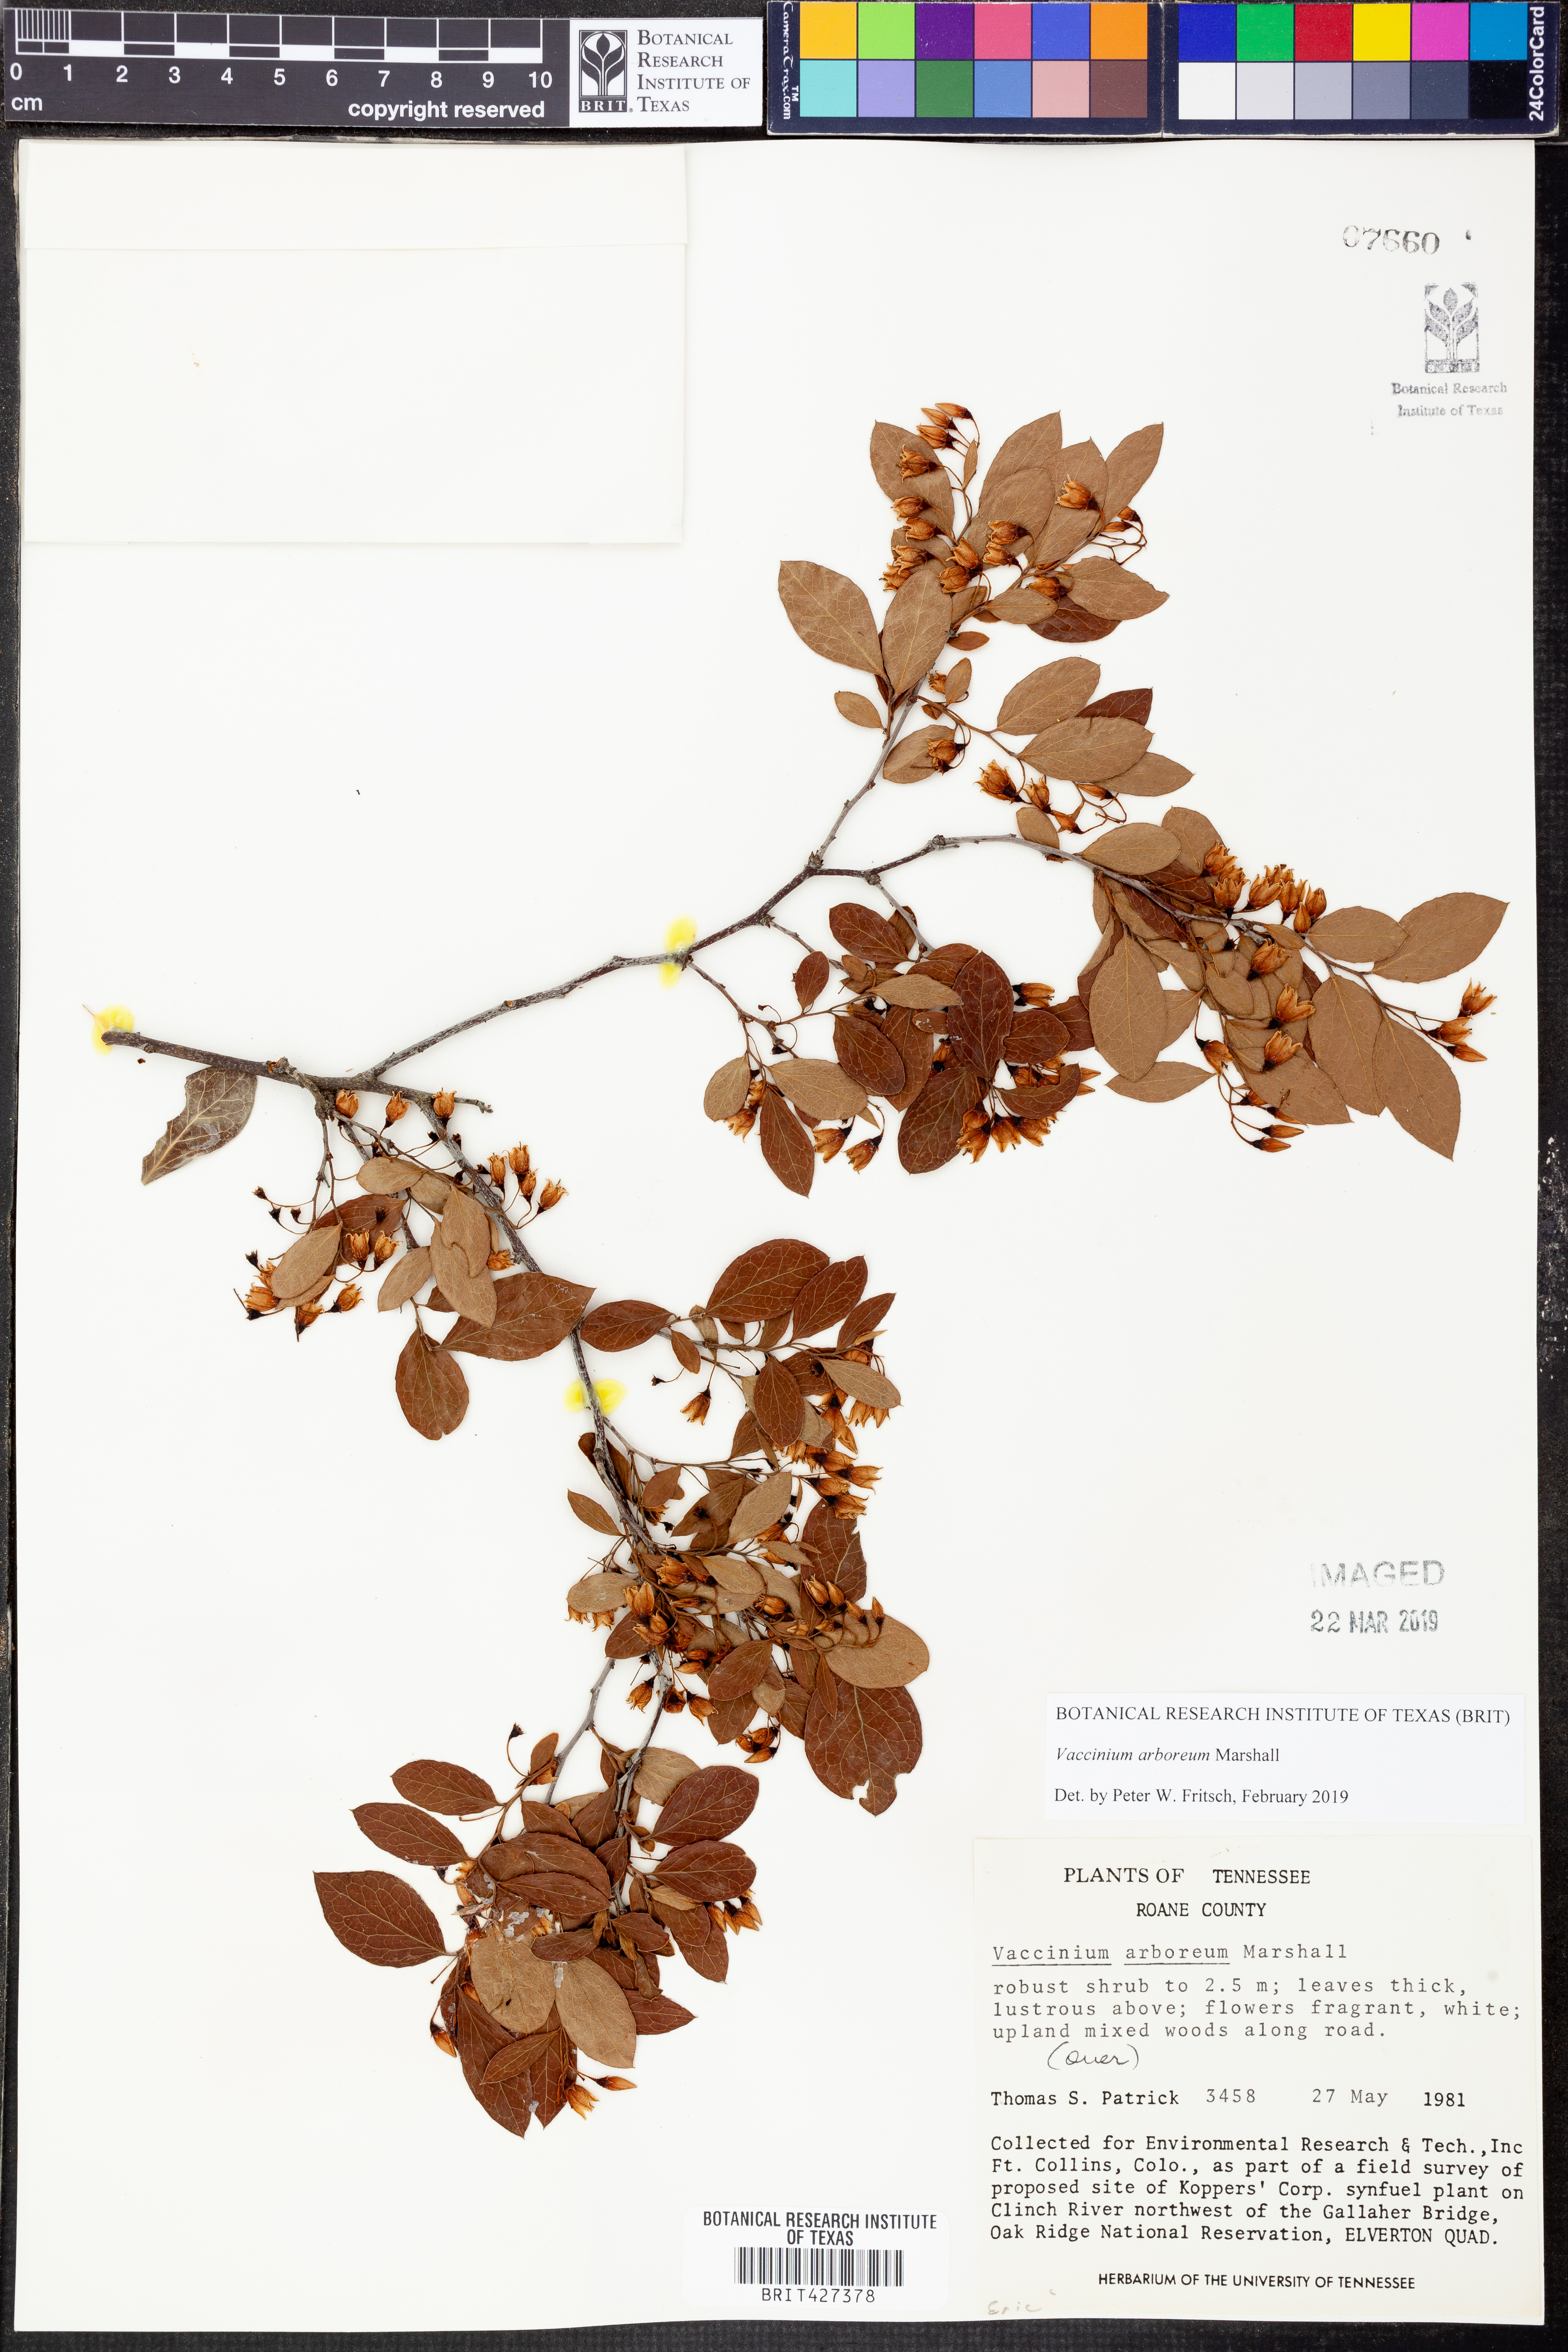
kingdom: Plantae
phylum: Tracheophyta
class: Magnoliopsida
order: Ericales
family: Ericaceae
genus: Vaccinium
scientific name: Vaccinium arboreum
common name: Farkleberry
